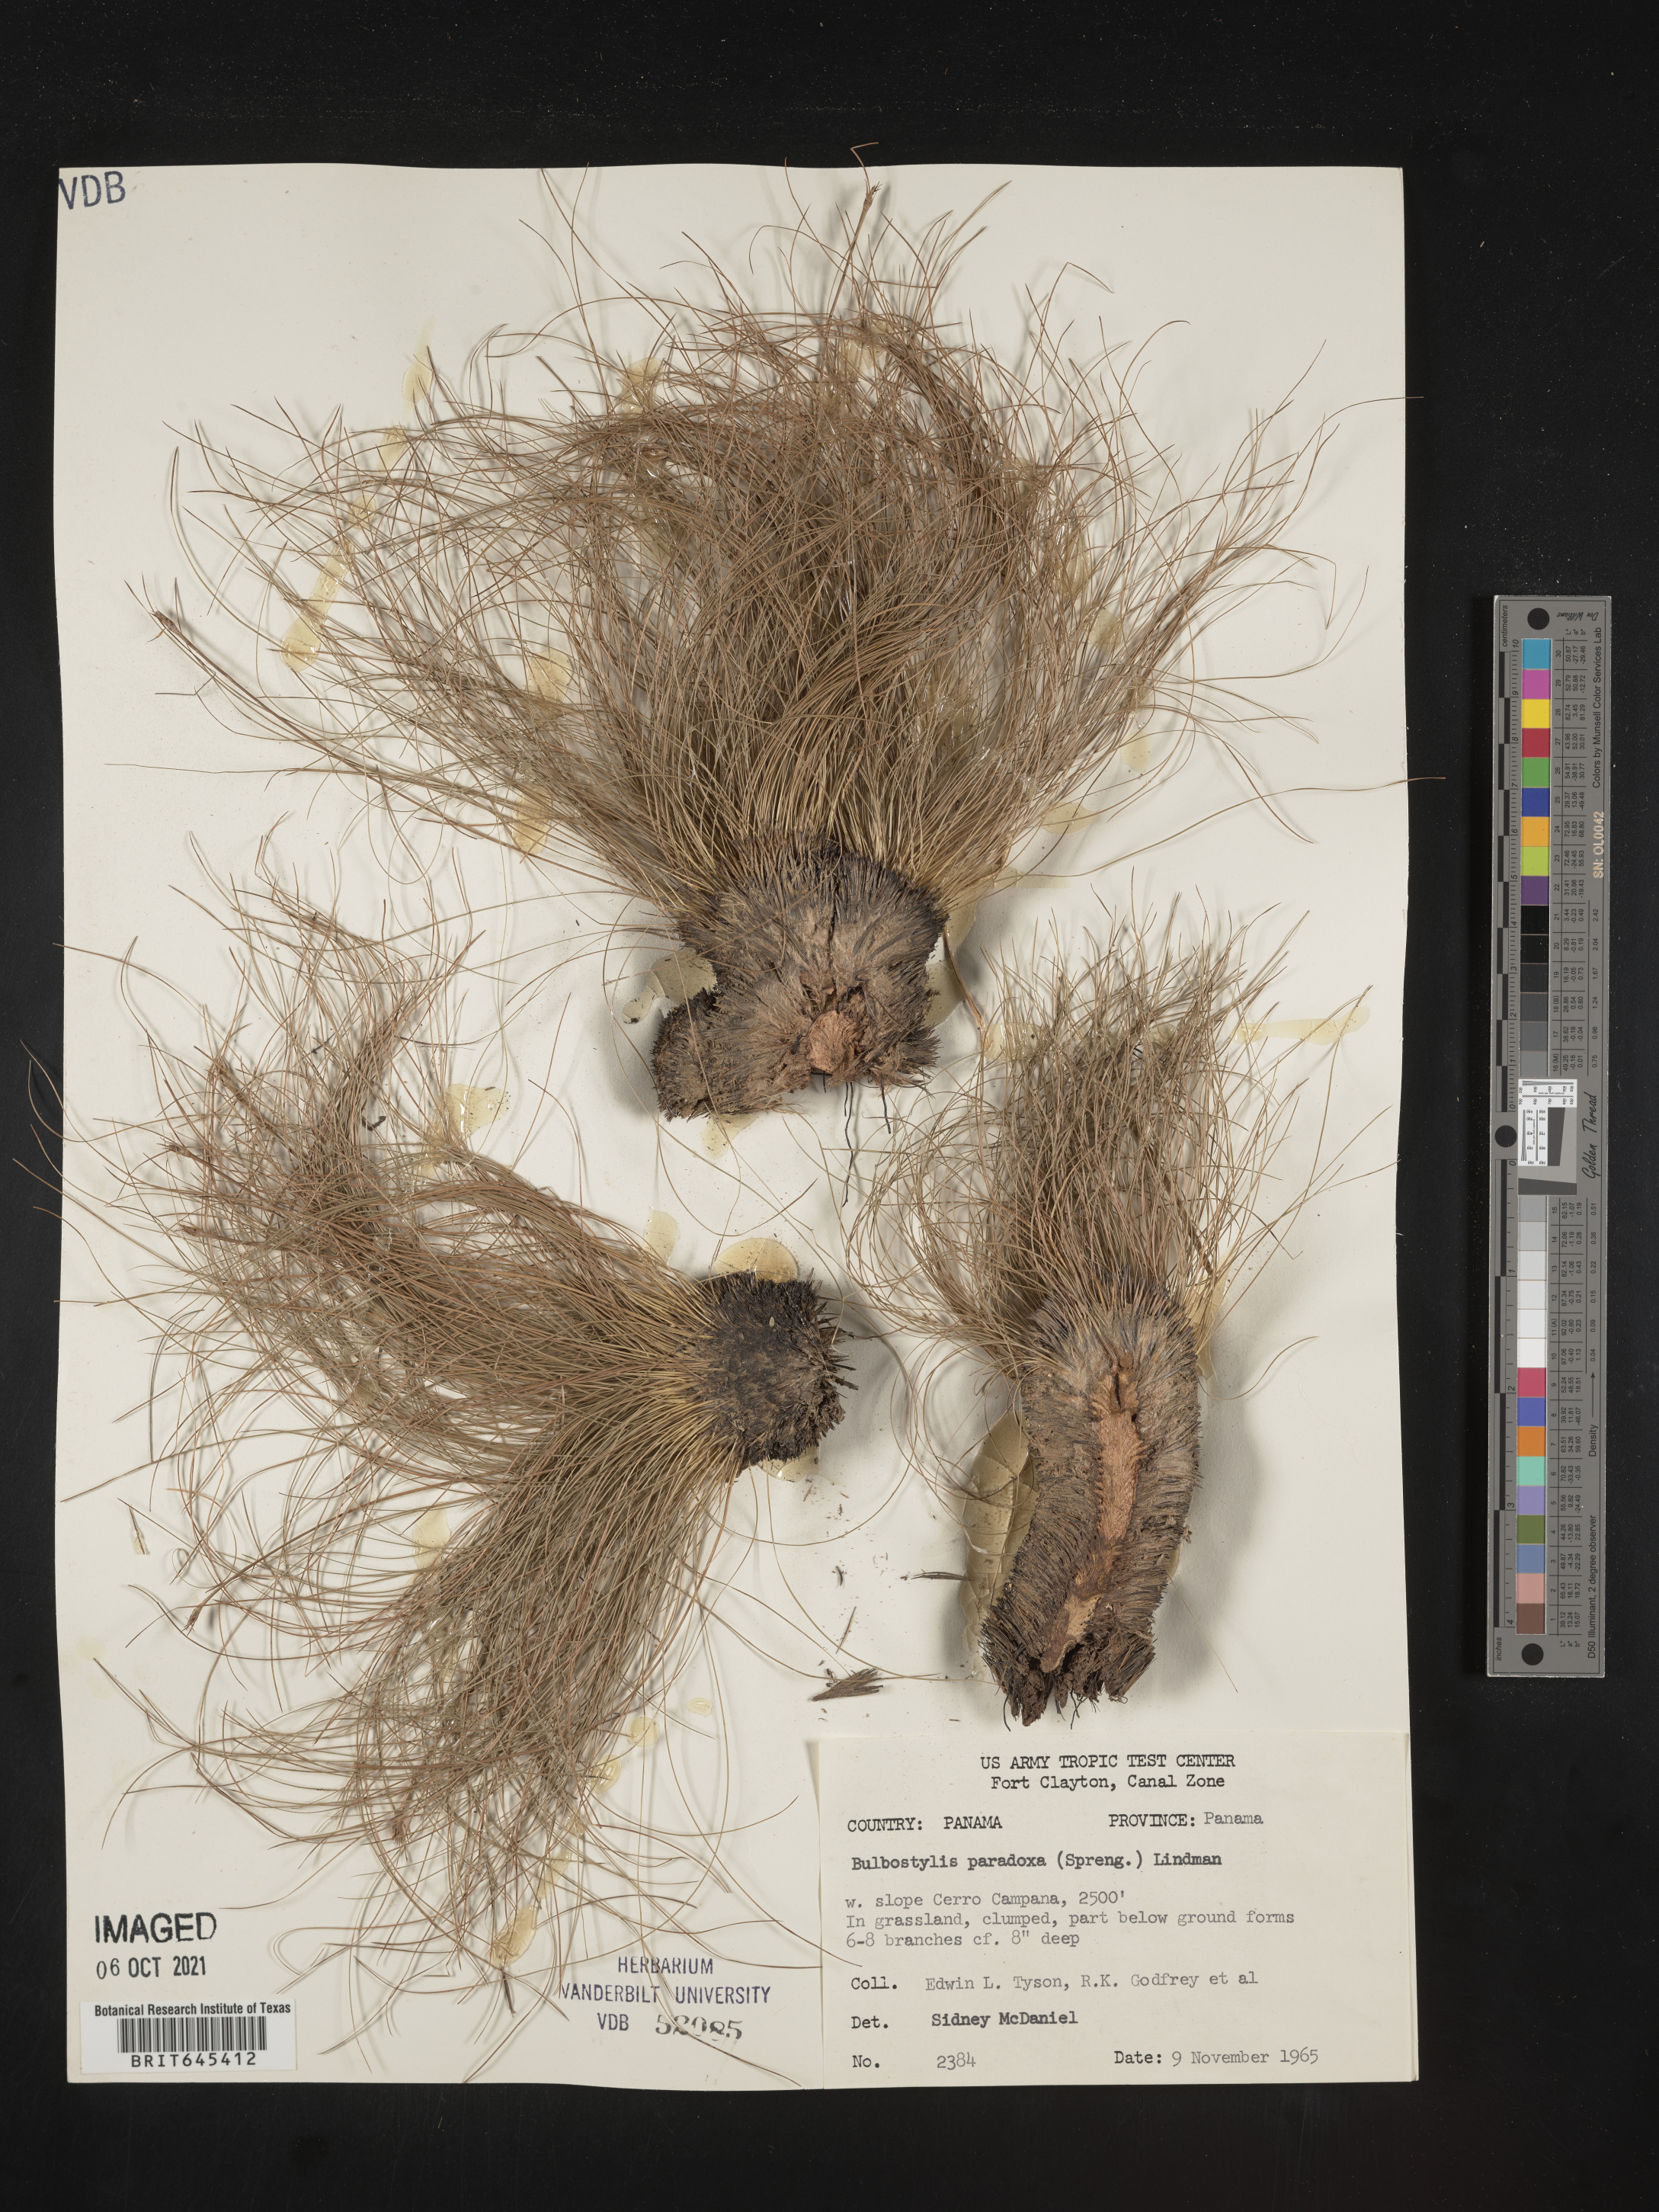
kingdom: Plantae
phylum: Tracheophyta
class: Liliopsida
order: Poales
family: Cyperaceae
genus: Bulbostylis
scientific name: Bulbostylis paradoxa
